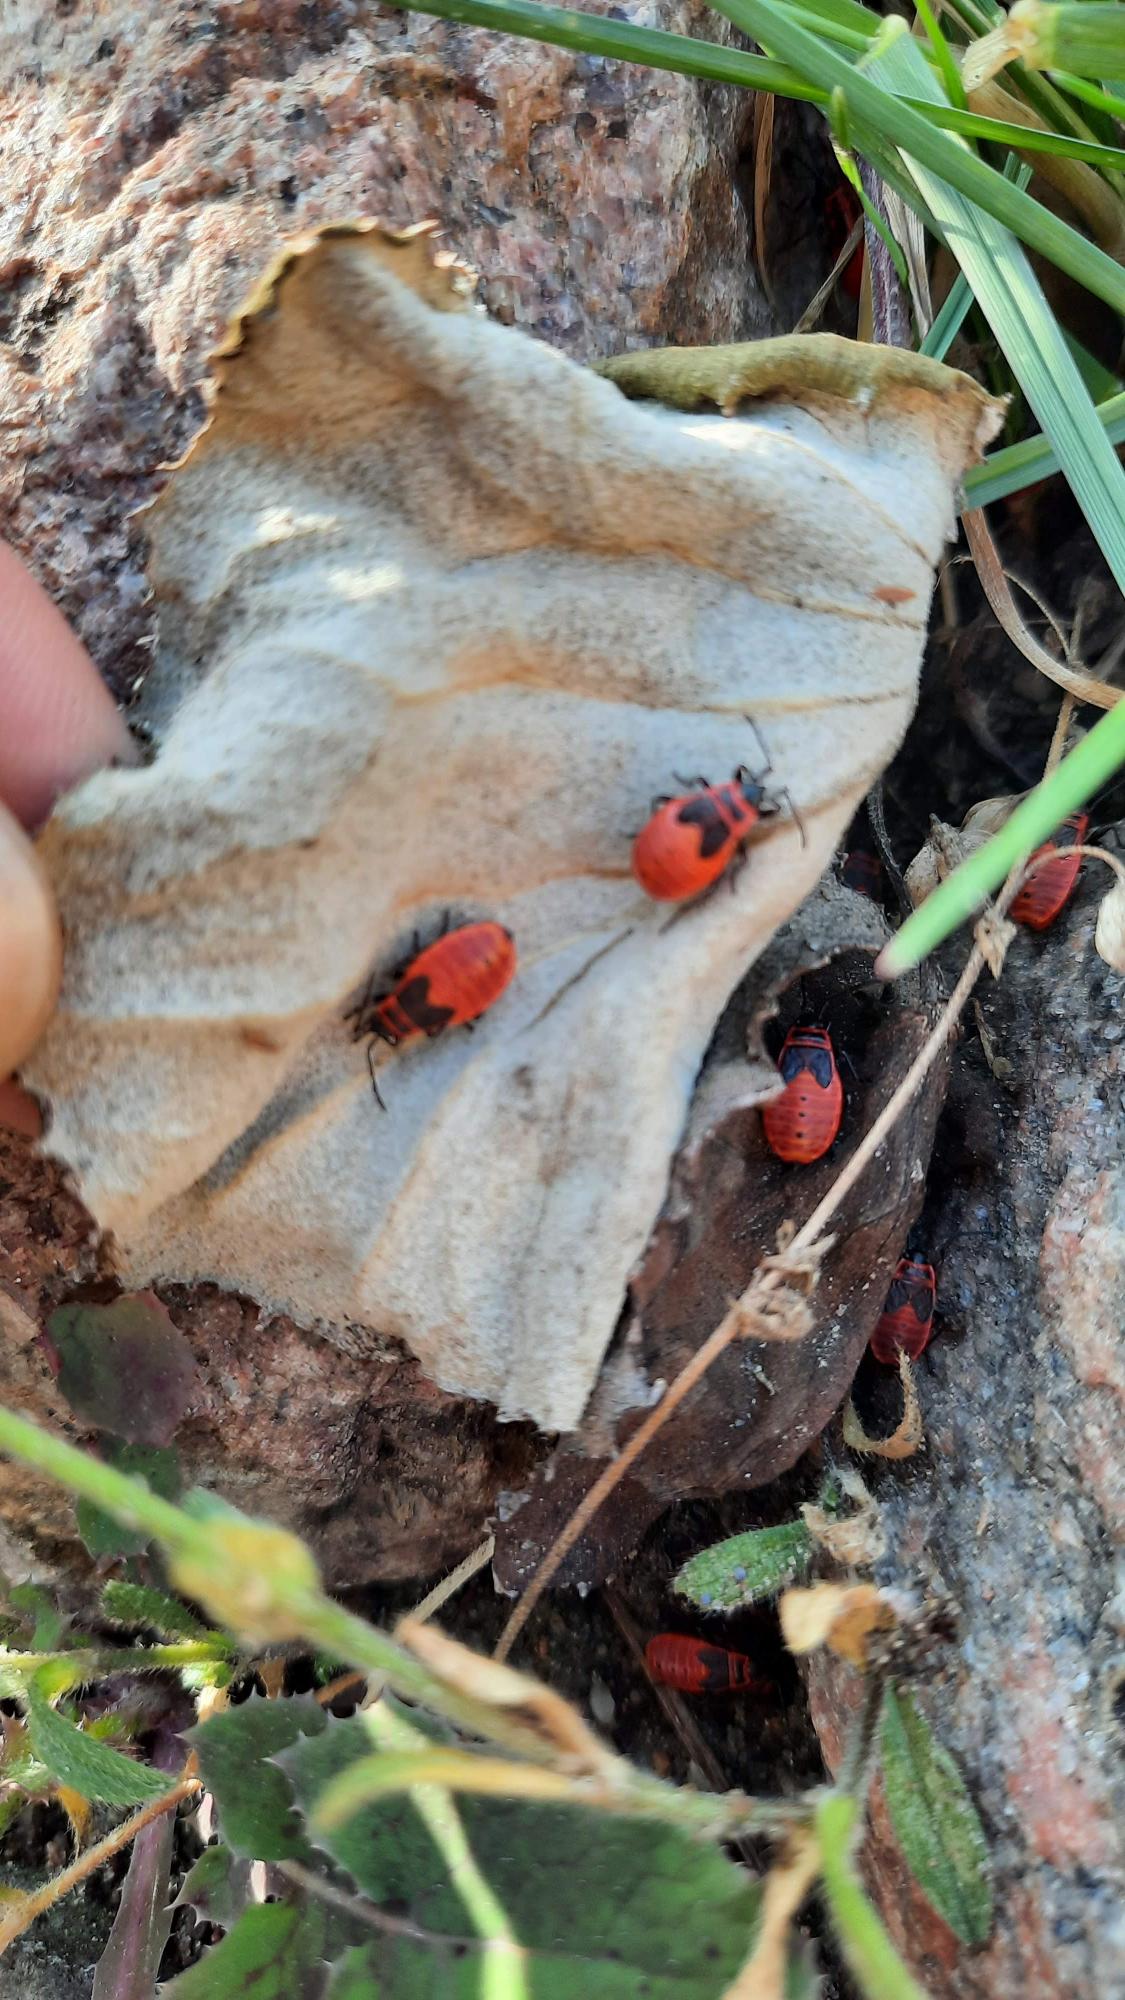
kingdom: Animalia
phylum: Arthropoda
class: Insecta
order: Hemiptera
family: Pyrrhocoridae
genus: Pyrrhocoris
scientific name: Pyrrhocoris apterus
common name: Ildtæge
